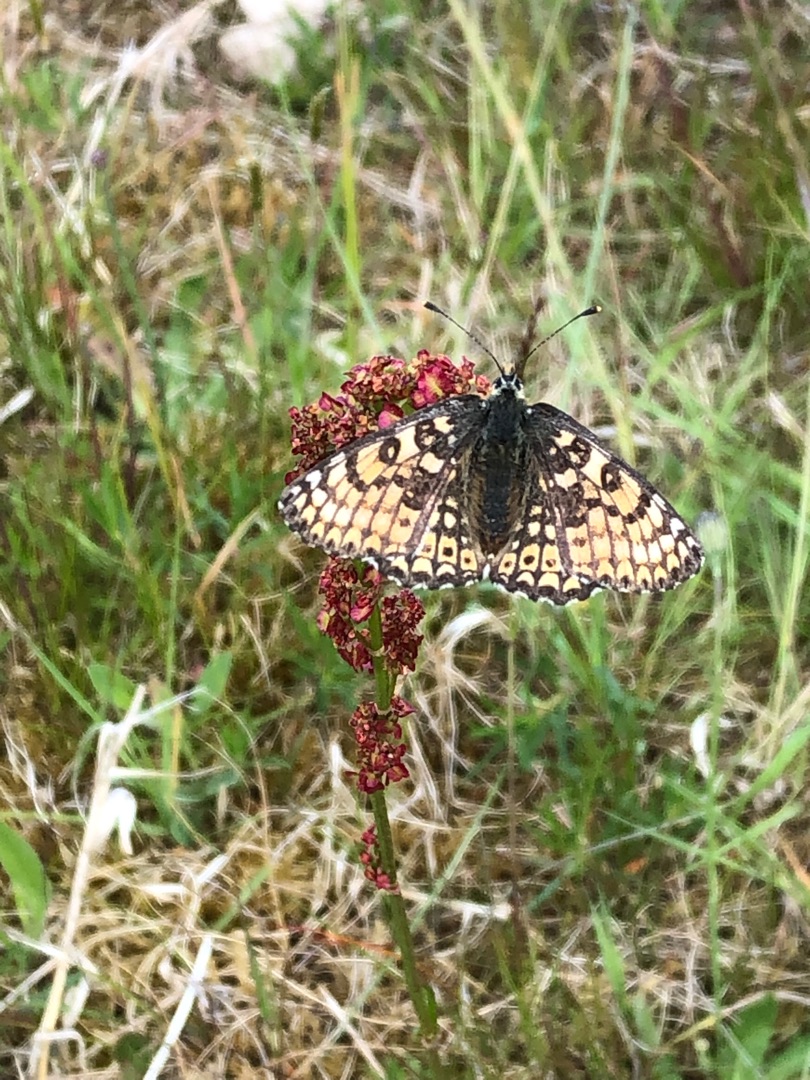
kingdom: Animalia
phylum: Arthropoda
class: Insecta
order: Lepidoptera
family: Nymphalidae
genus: Melitaea
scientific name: Melitaea cinxia
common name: Okkergul pletvinge
